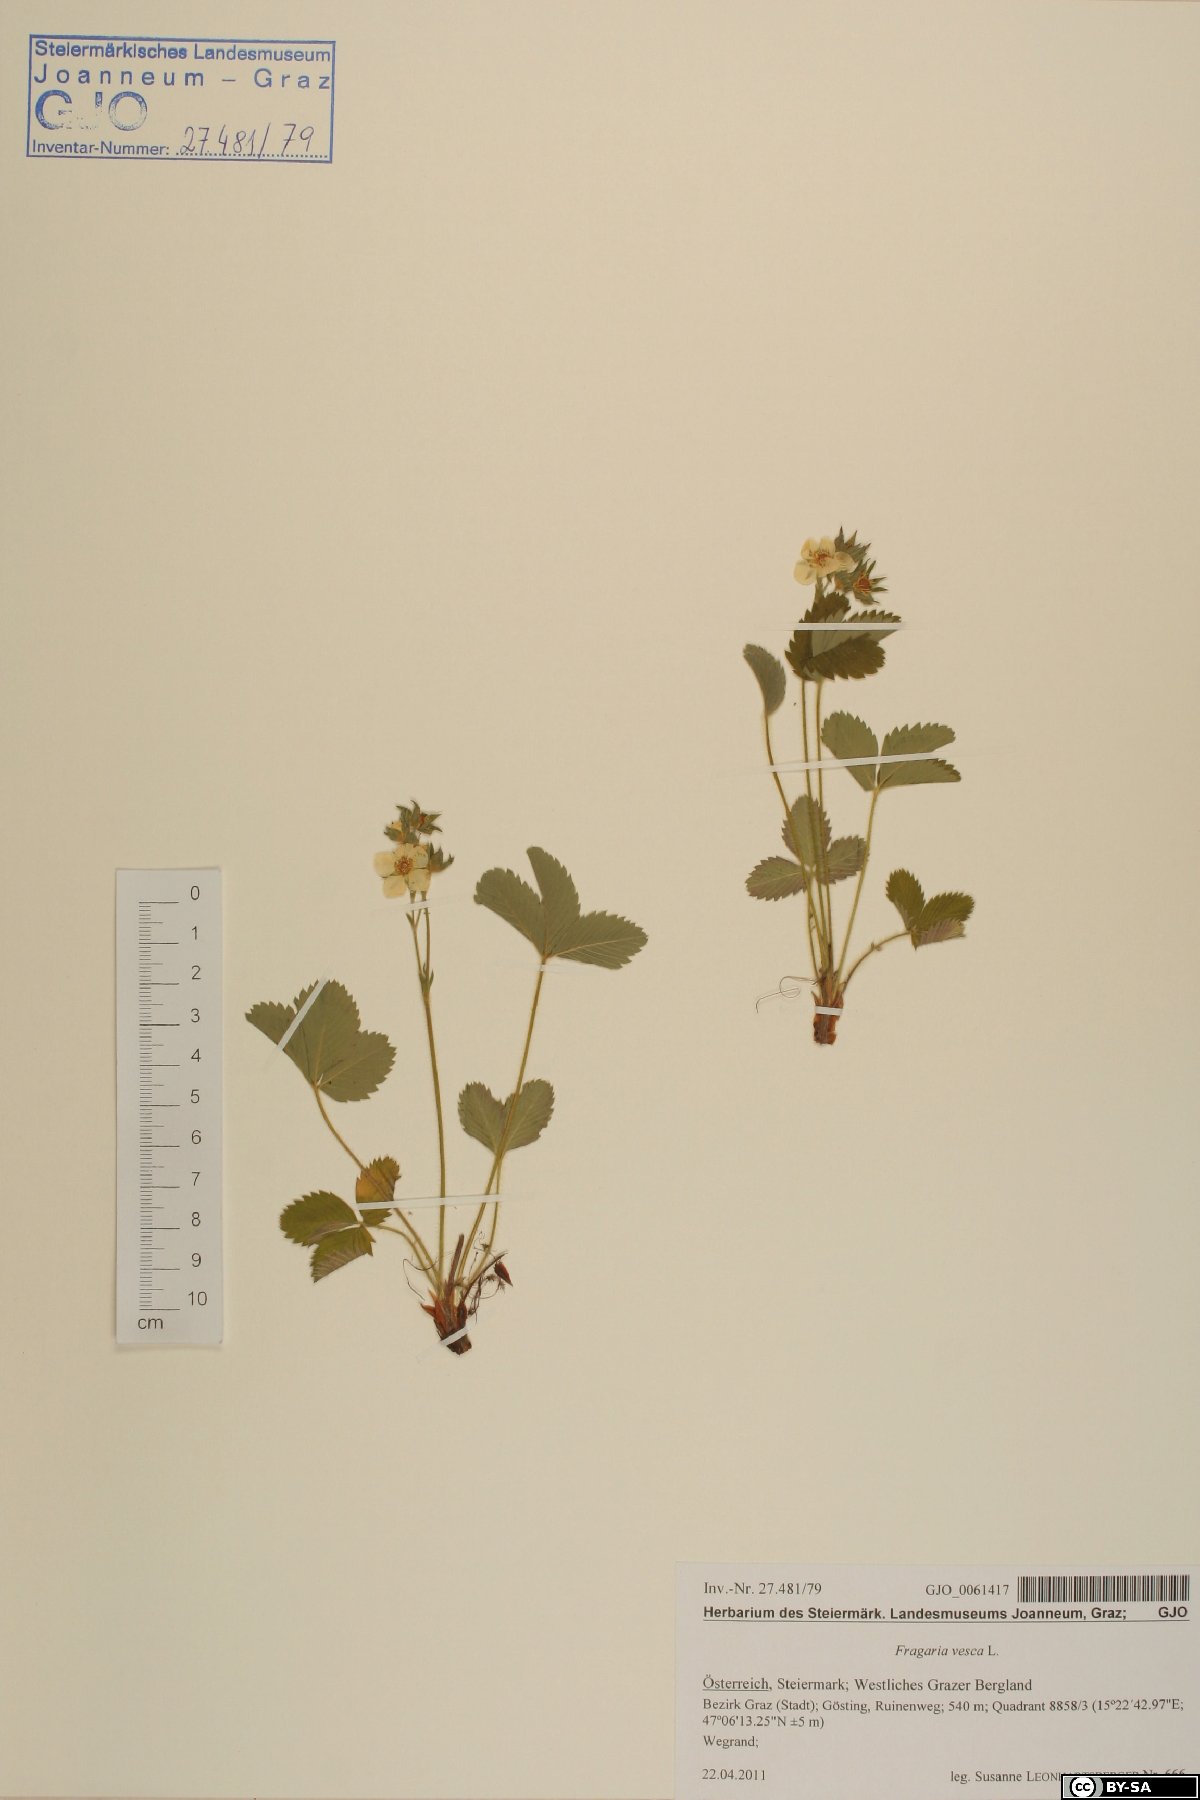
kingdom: Plantae
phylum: Tracheophyta
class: Magnoliopsida
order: Rosales
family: Rosaceae
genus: Fragaria
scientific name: Fragaria vesca
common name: Wild strawberry
